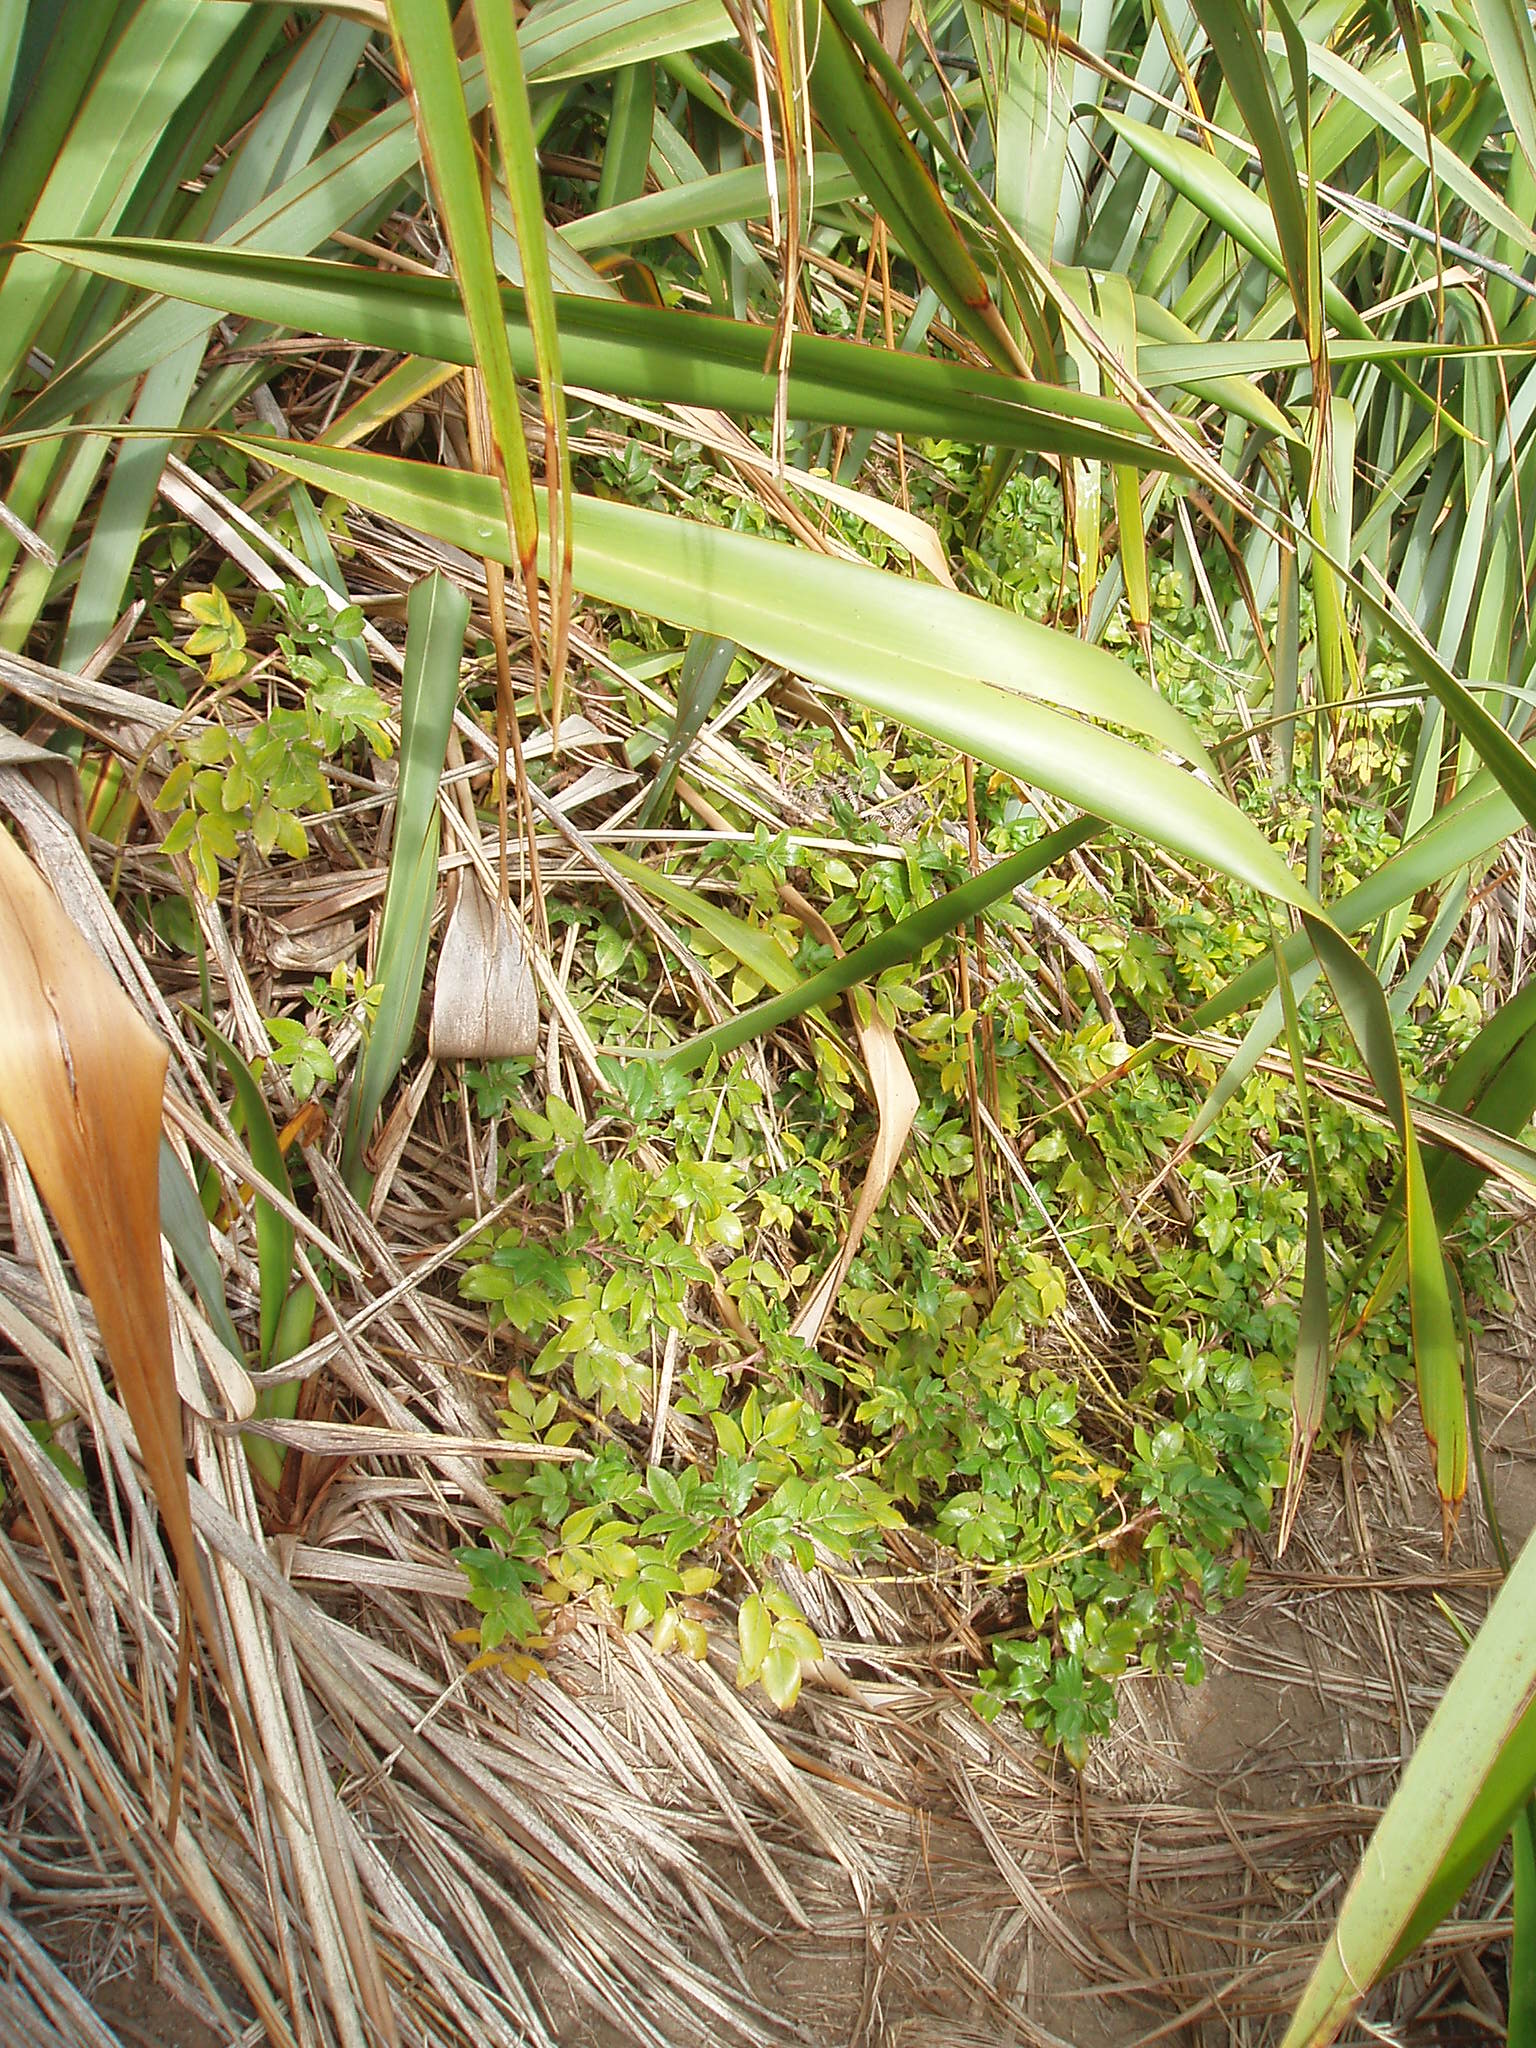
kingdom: Plantae
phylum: Tracheophyta
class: Magnoliopsida
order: Apiales
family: Apiaceae
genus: Scandia
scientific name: Scandia rosifolia
